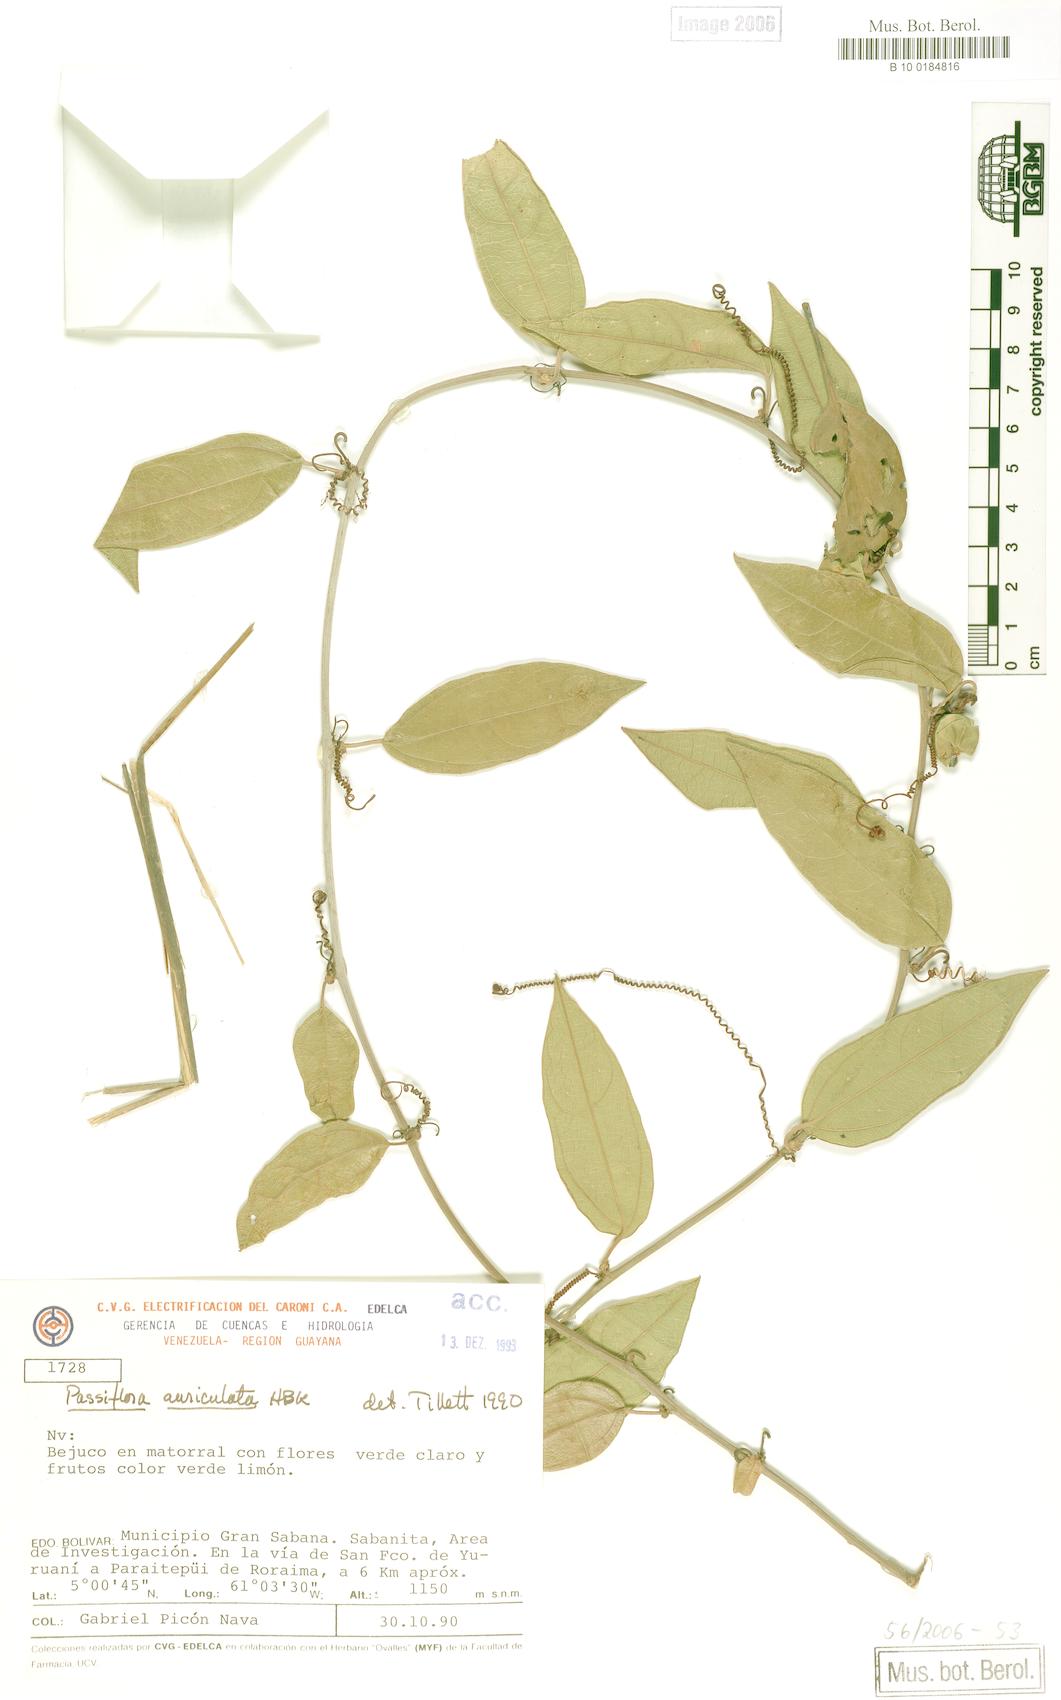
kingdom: Plantae
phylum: Tracheophyta
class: Magnoliopsida
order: Malpighiales
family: Passifloraceae
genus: Passiflora
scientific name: Passiflora auriculata
